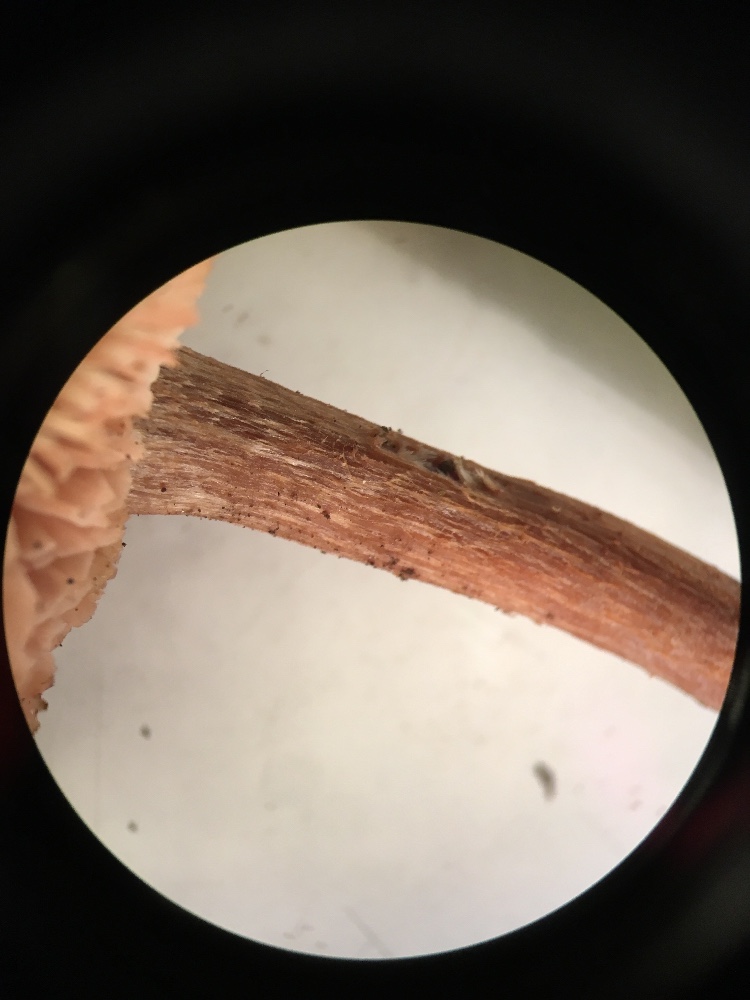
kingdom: Fungi
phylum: Basidiomycota
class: Agaricomycetes
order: Agaricales
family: Hydnangiaceae
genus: Laccaria
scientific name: Laccaria proxima
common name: stor ametysthat
